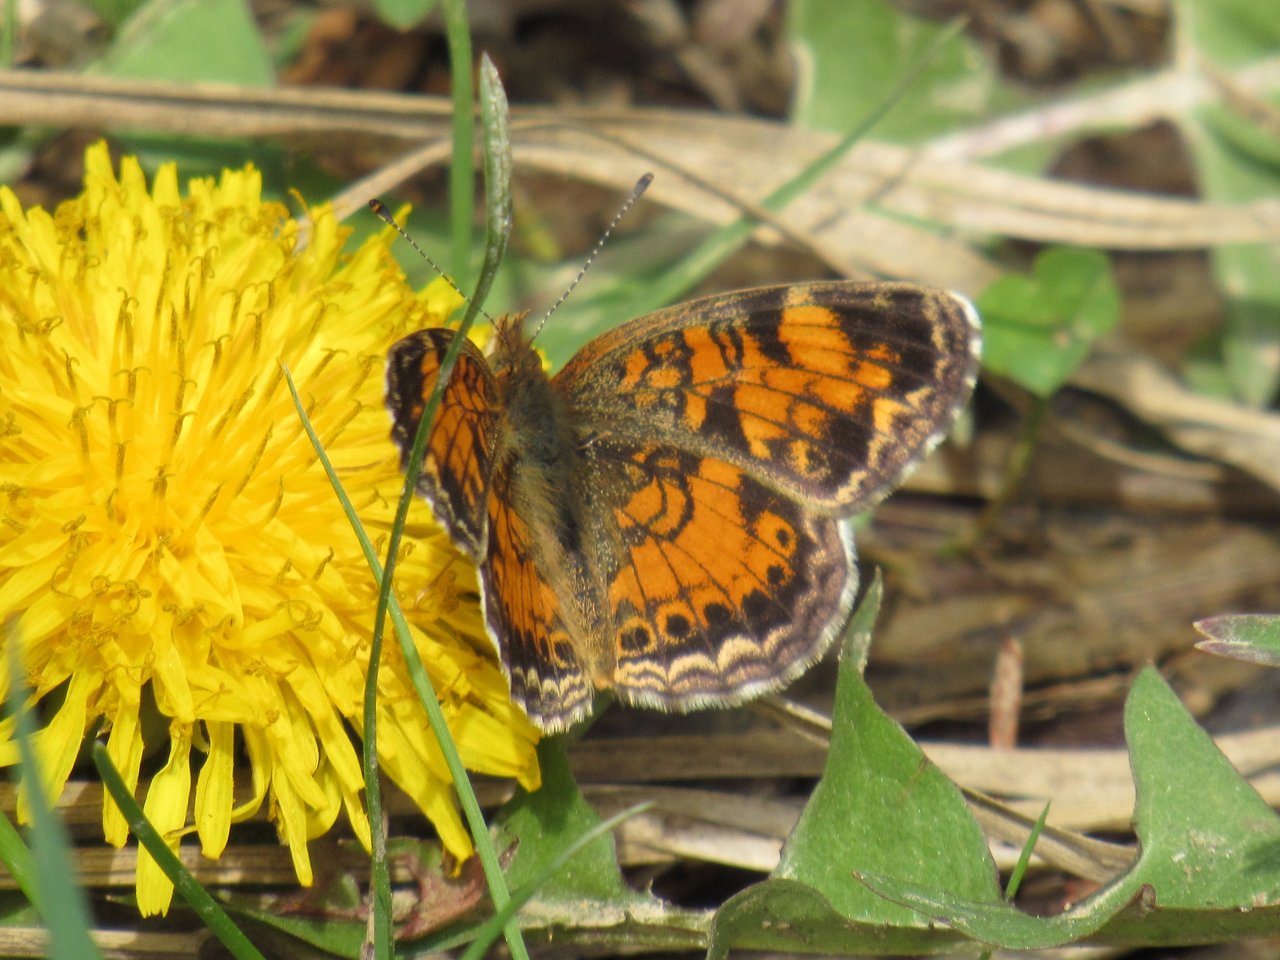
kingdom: Animalia
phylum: Arthropoda
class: Insecta
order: Lepidoptera
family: Nymphalidae
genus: Phyciodes
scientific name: Phyciodes tharos
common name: Pearl Crescent
